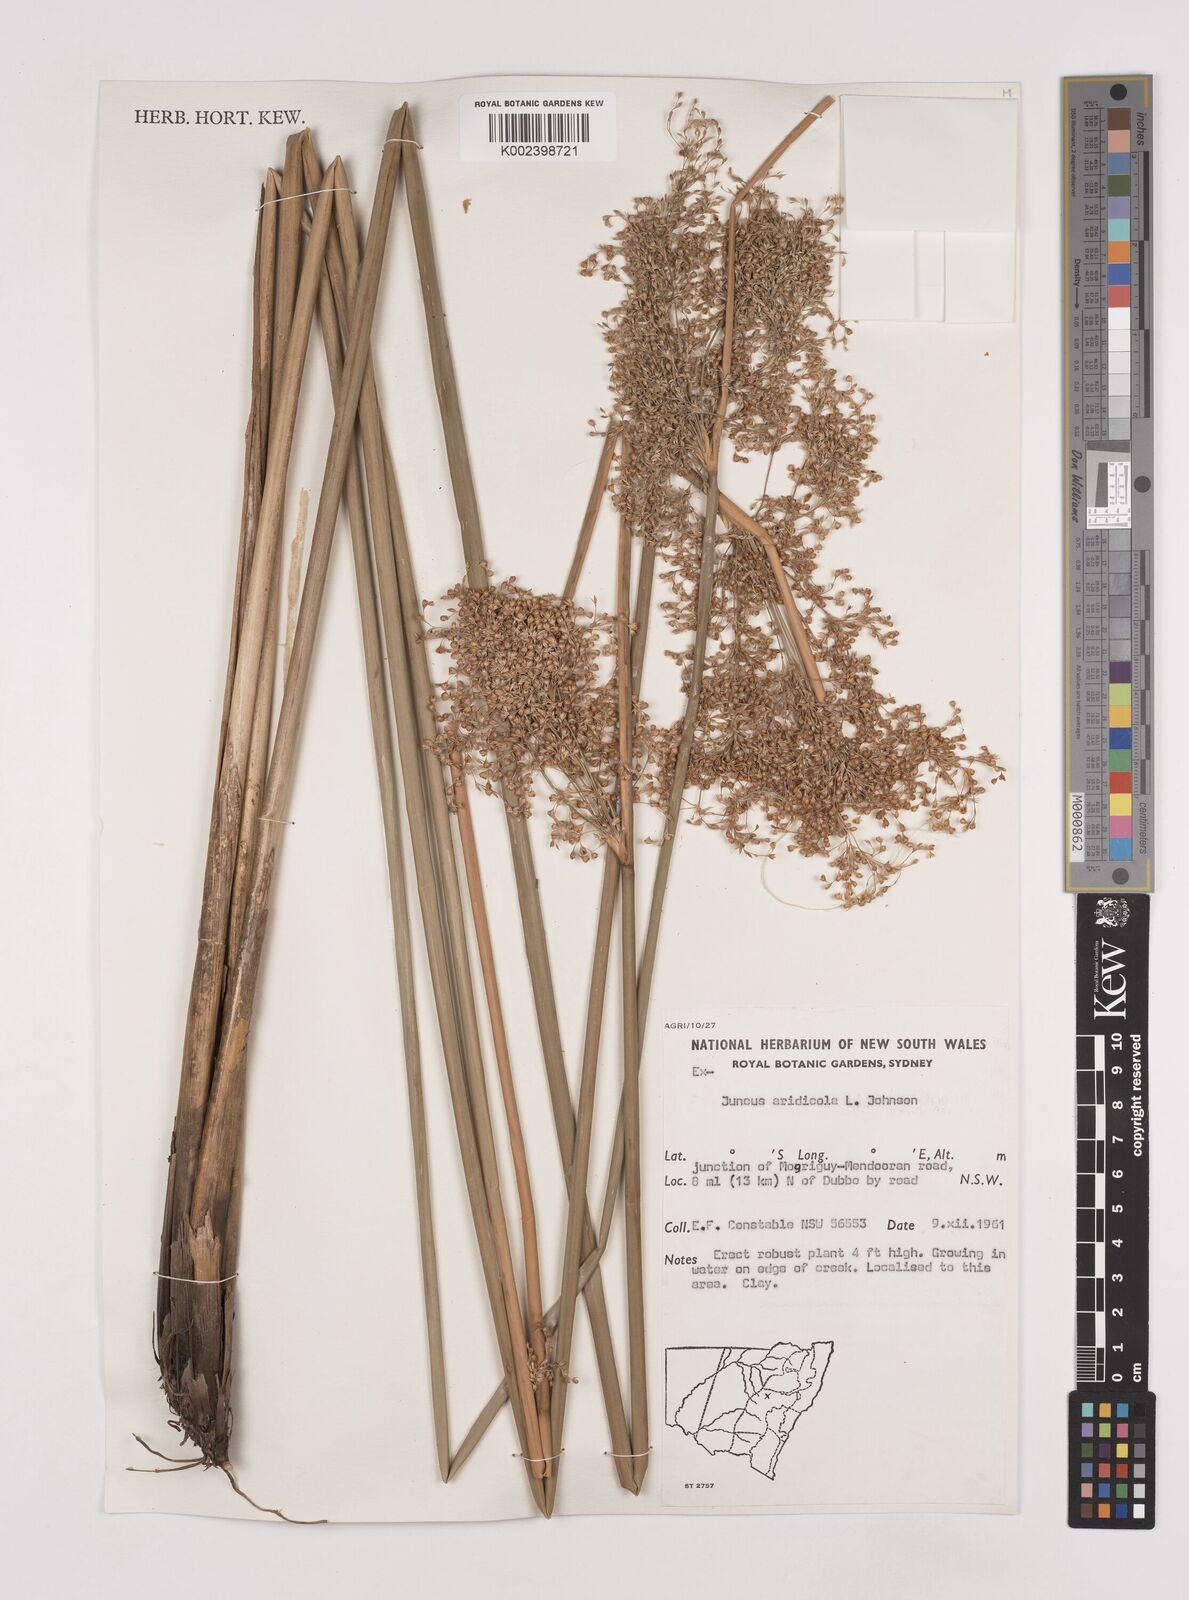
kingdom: Plantae
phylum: Tracheophyta
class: Liliopsida
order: Poales
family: Juncaceae
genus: Juncus
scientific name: Juncus aridicola
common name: Tussock rush
